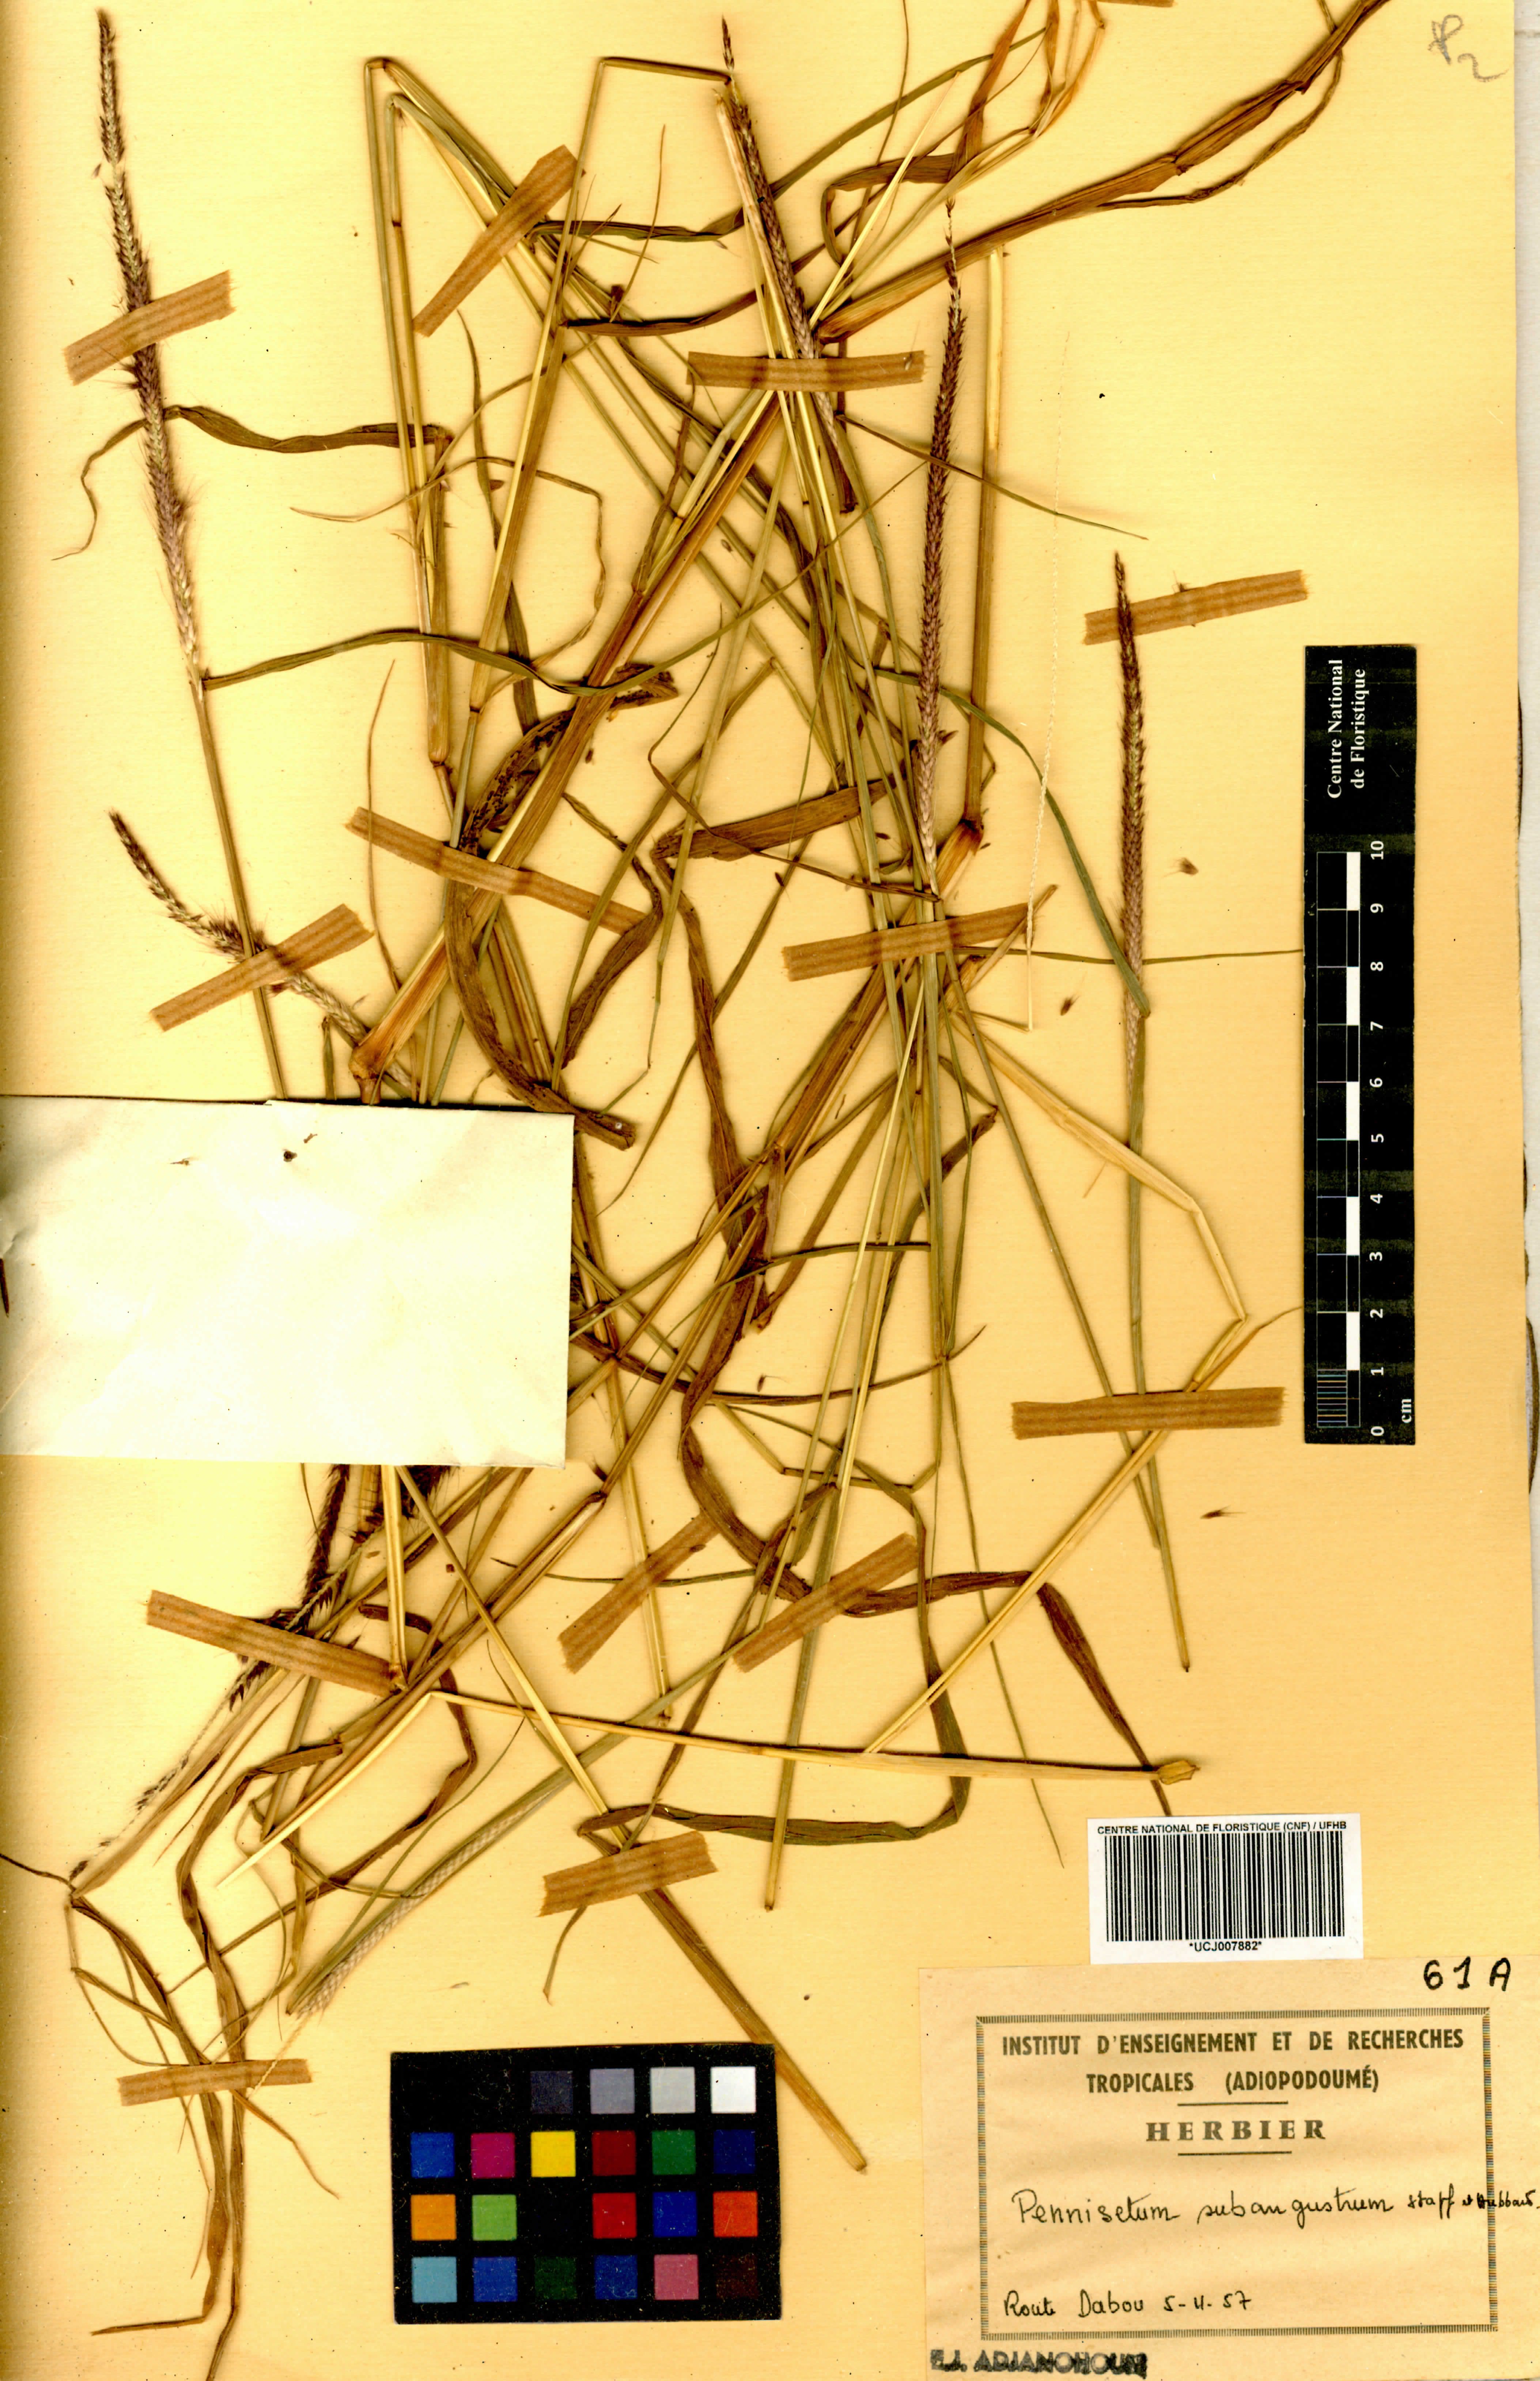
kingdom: Plantae
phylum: Tracheophyta
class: Liliopsida
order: Poales
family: Poaceae
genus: Cenchrus
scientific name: Cenchrus setosus
